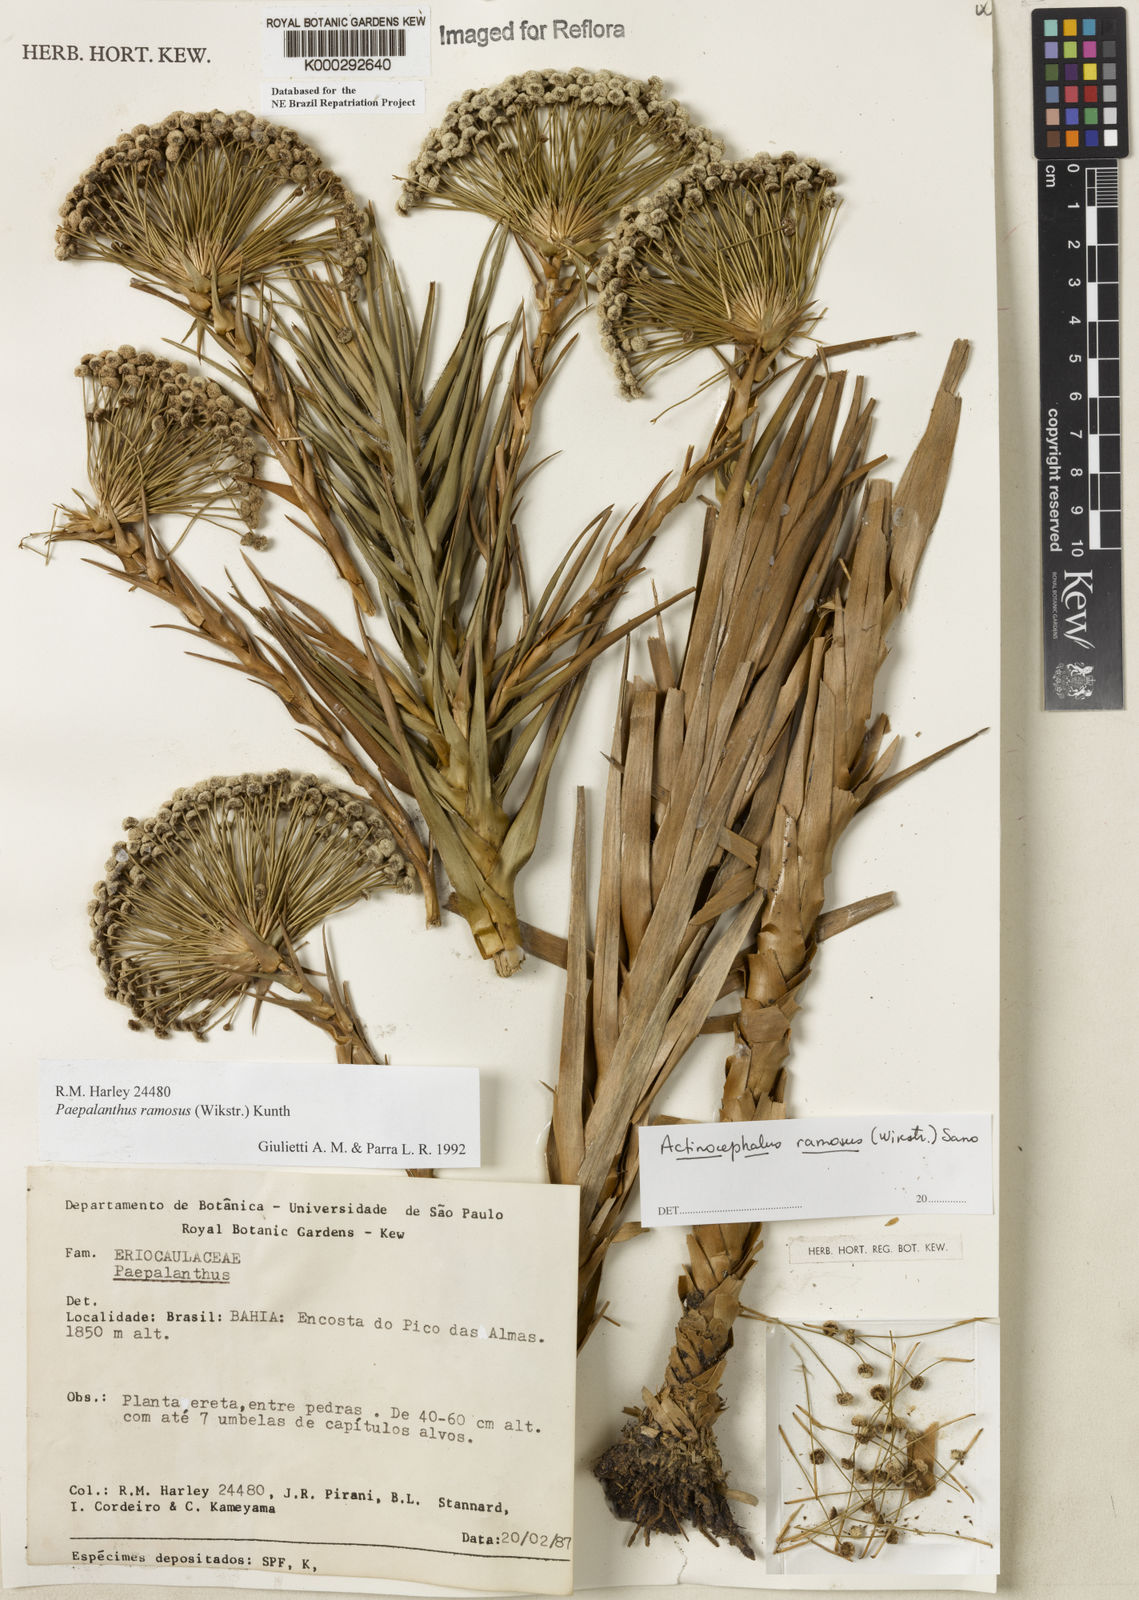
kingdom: Plantae
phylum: Tracheophyta
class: Liliopsida
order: Poales
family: Eriocaulaceae
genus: Paepalanthus
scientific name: Paepalanthus ramosus
